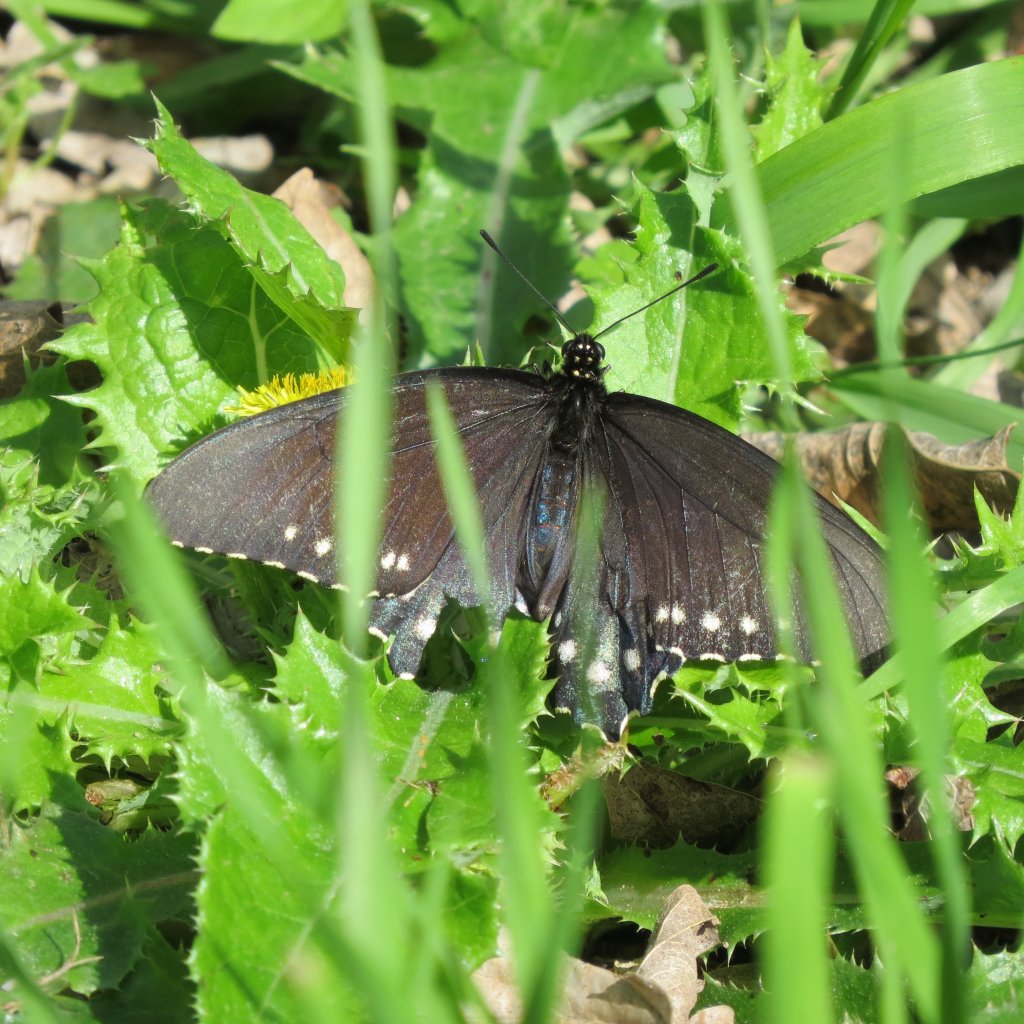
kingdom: Animalia
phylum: Arthropoda
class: Insecta
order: Lepidoptera
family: Papilionidae
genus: Battus
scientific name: Battus philenor
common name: Pipevine Swallowtail
